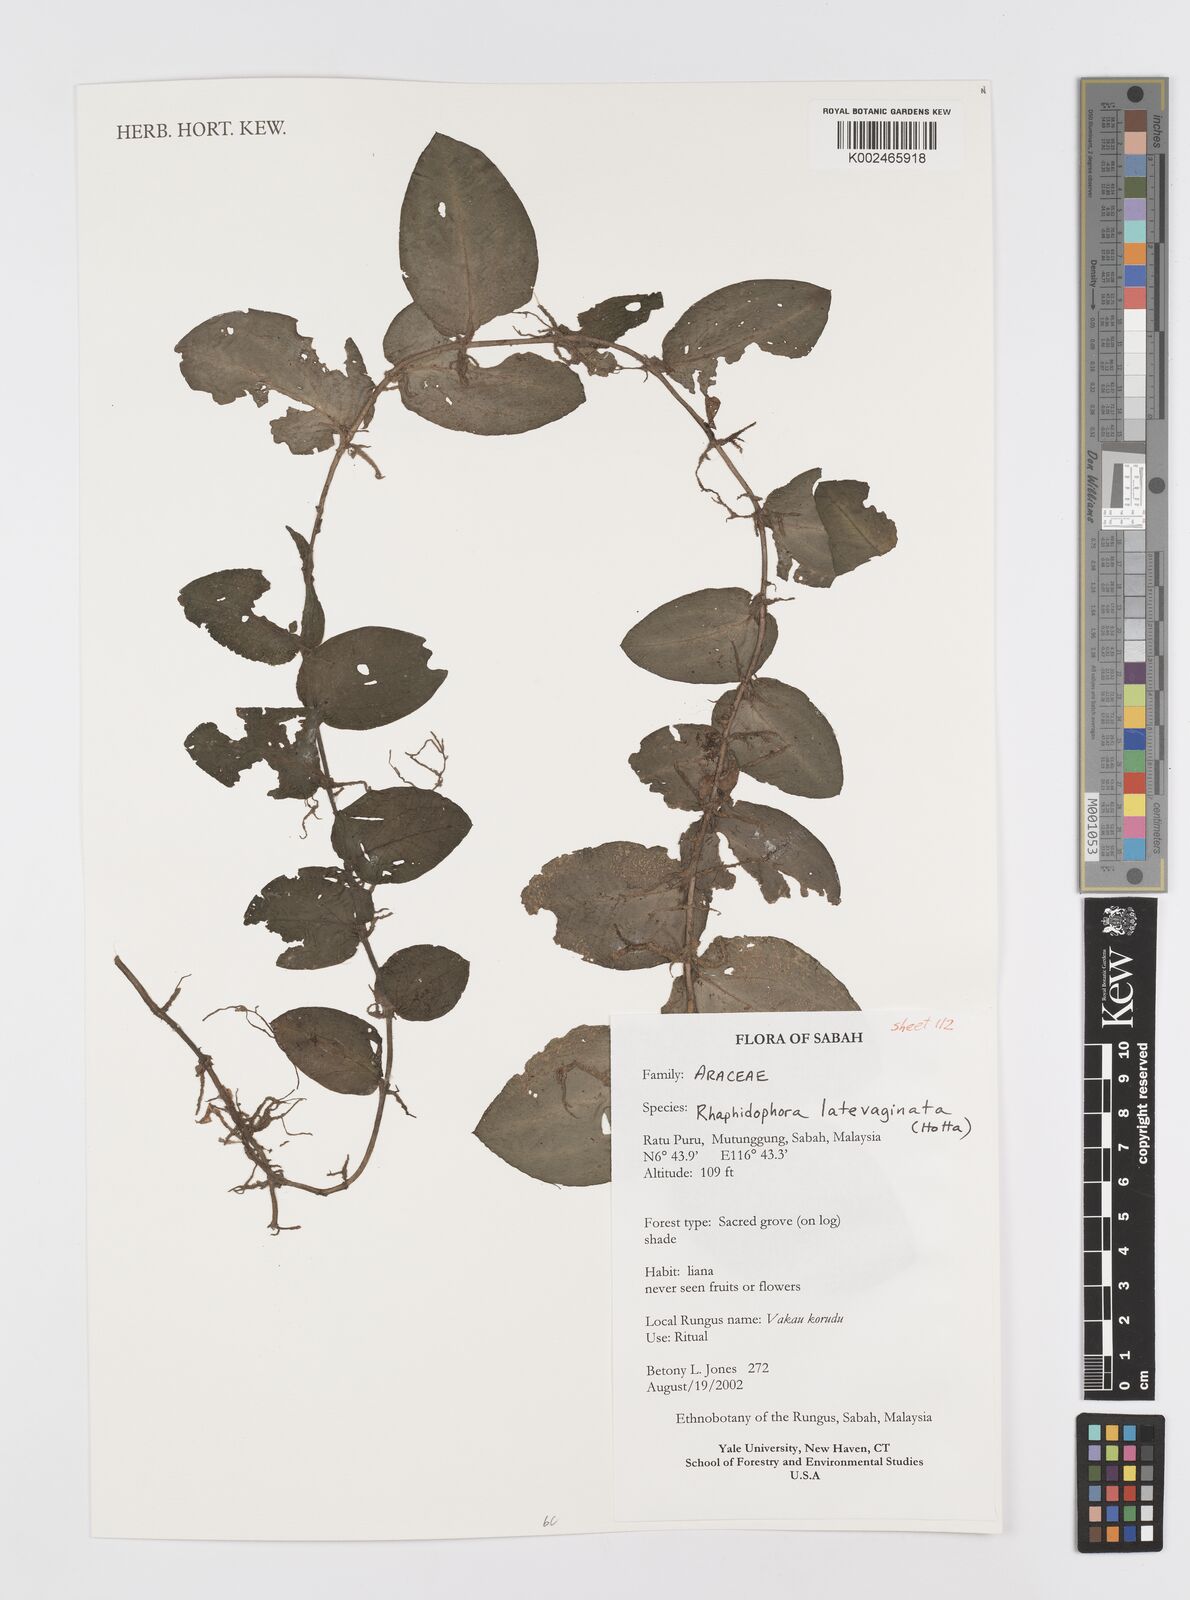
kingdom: Plantae
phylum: Tracheophyta
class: Liliopsida
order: Alismatales
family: Araceae
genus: Rhaphidophora
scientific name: Rhaphidophora latevaginata
